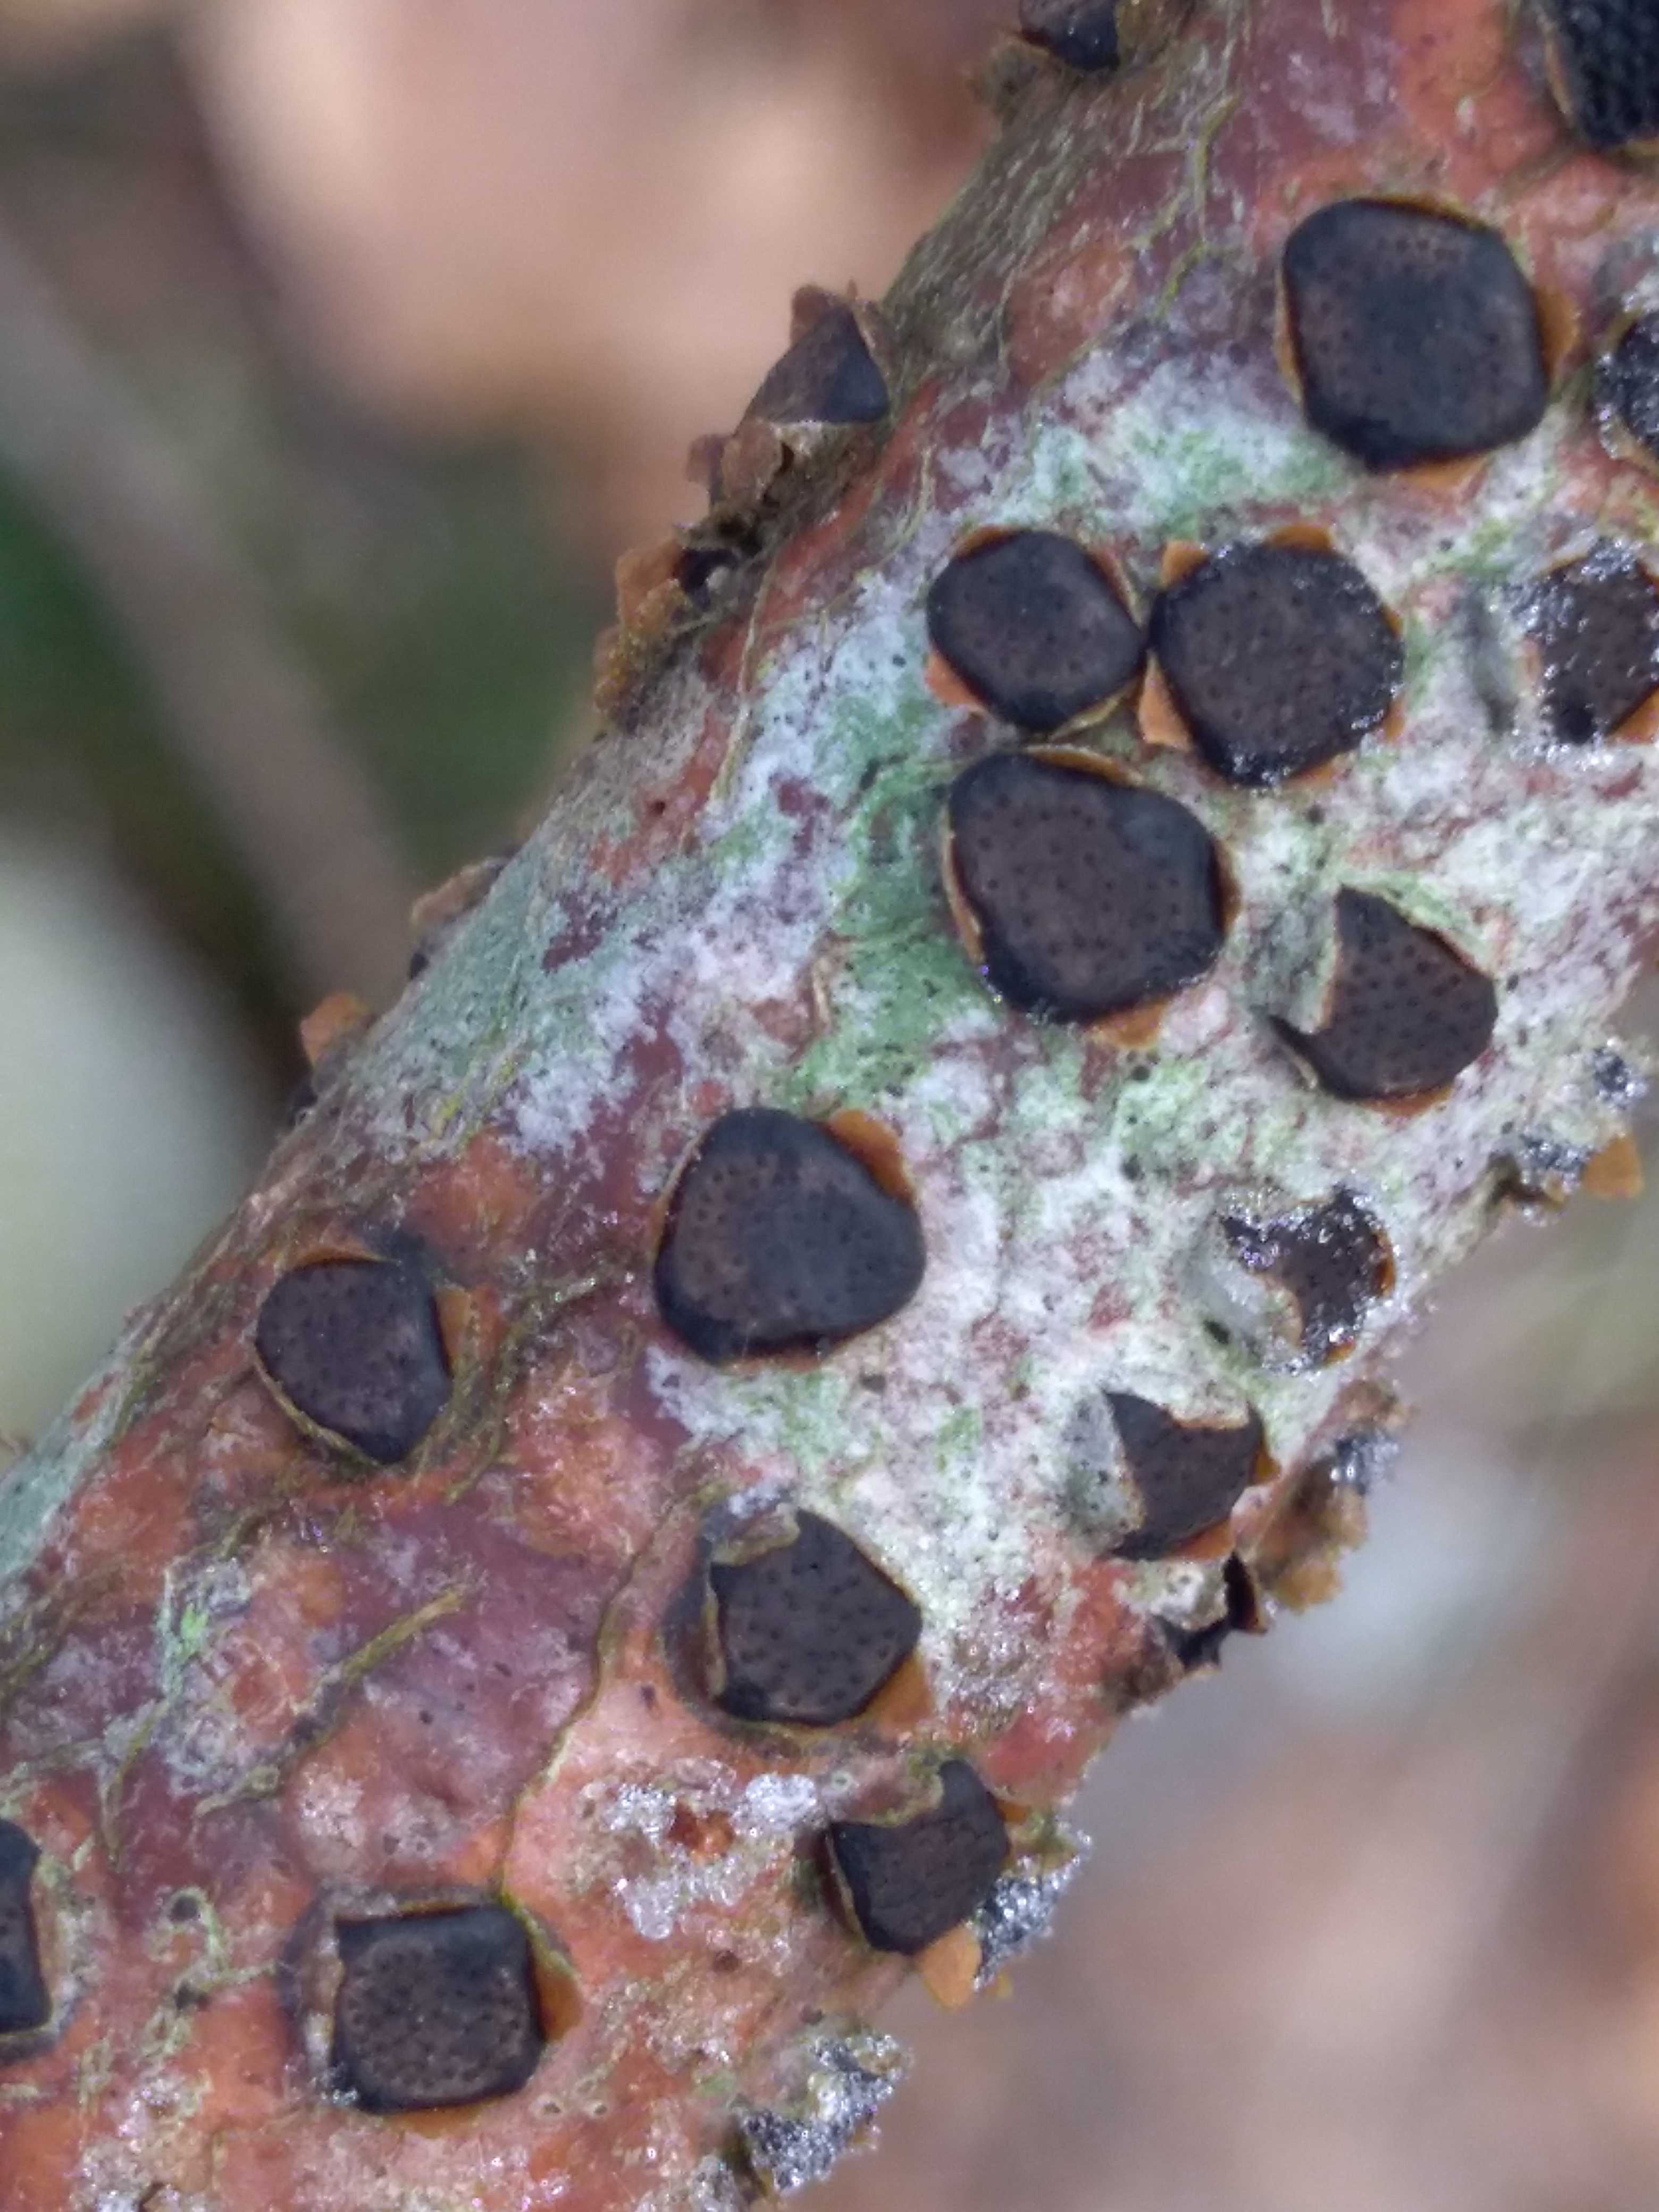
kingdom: Fungi
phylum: Ascomycota
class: Sordariomycetes
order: Xylariales
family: Diatrypaceae
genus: Diatrype
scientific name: Diatrype disciformis
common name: kant-kulskorpe
